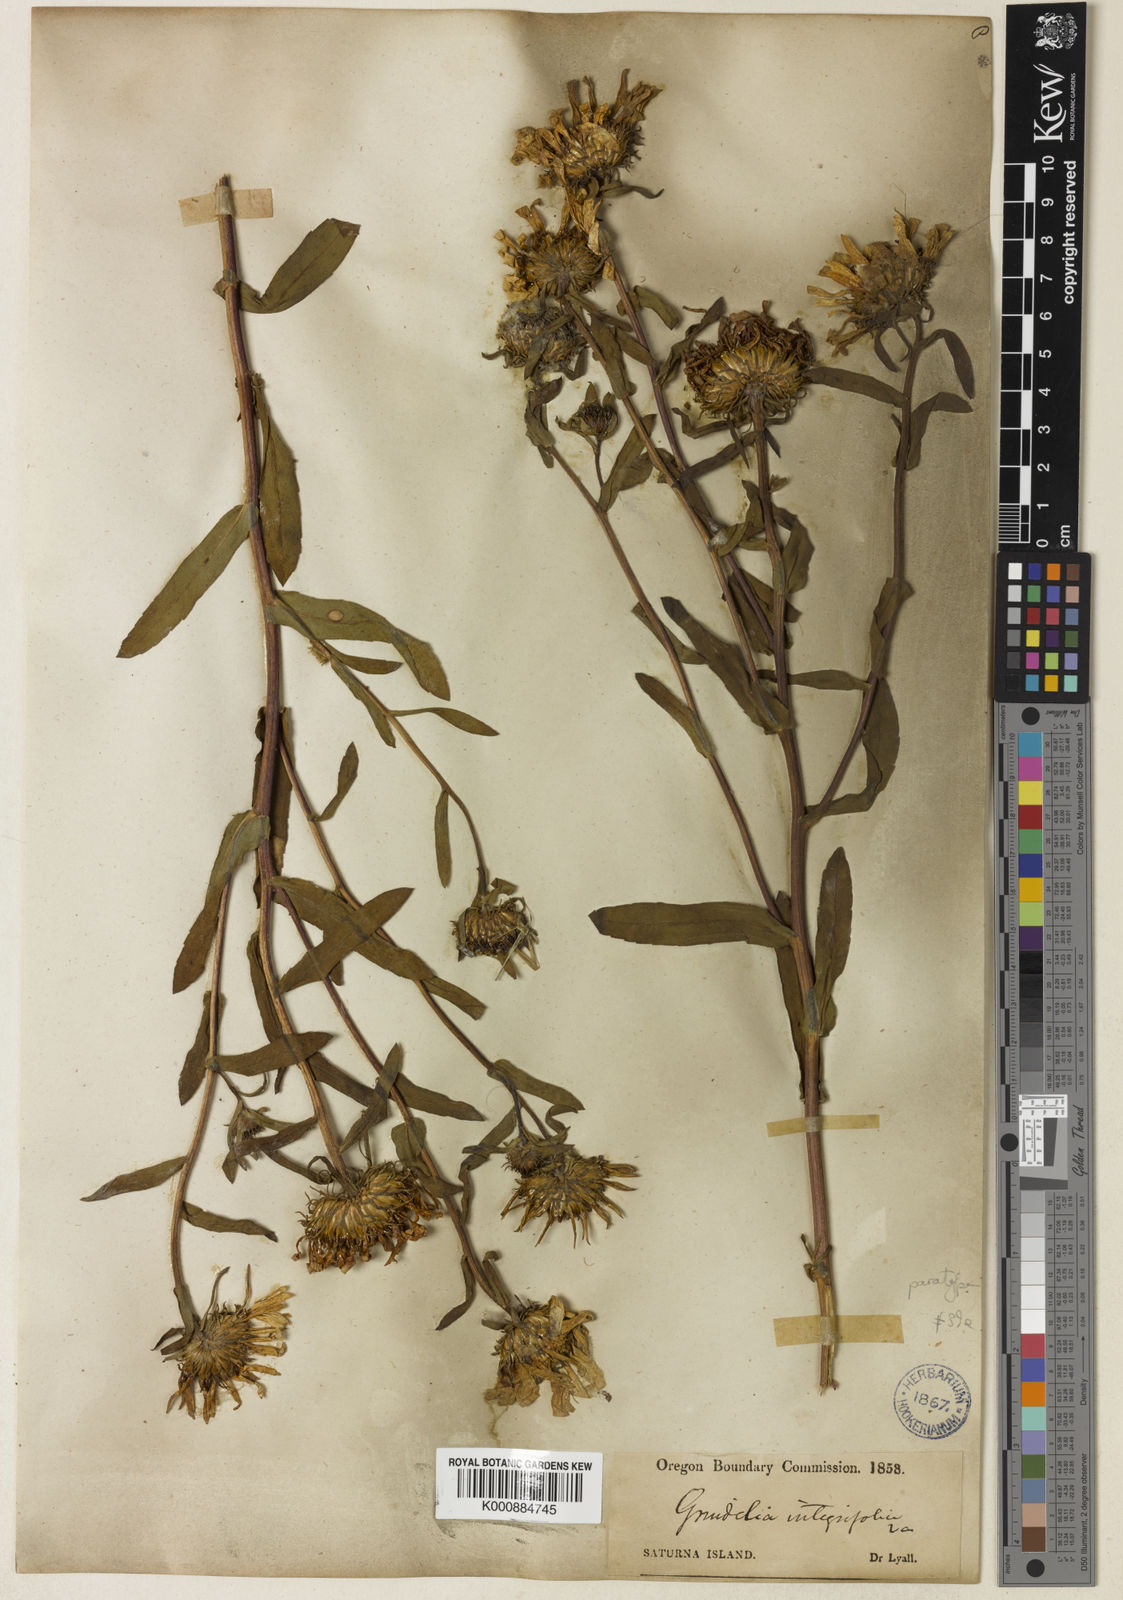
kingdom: Plantae
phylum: Tracheophyta
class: Magnoliopsida
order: Asterales
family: Asteraceae
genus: Grindelia
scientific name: Grindelia hirsutula
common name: Hairy gumweed
